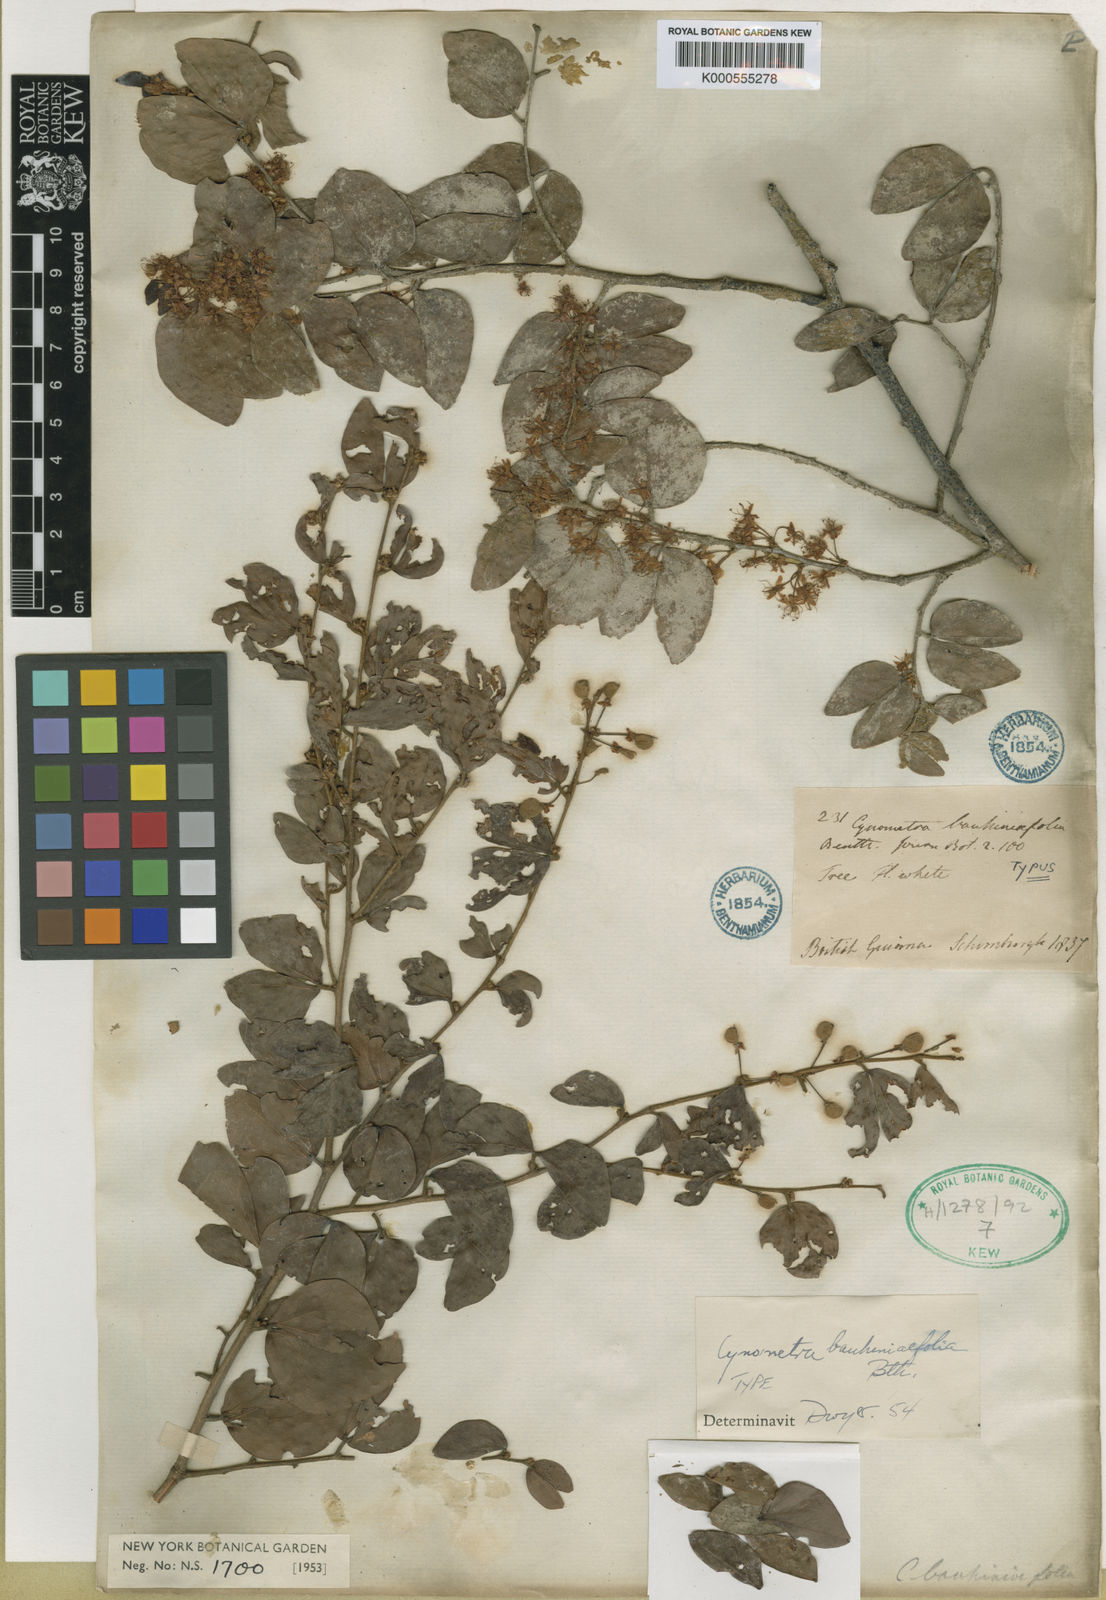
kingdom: Plantae
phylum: Tracheophyta
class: Magnoliopsida
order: Fabales
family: Fabaceae
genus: Cynometra
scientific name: Cynometra bauhiniifolia
